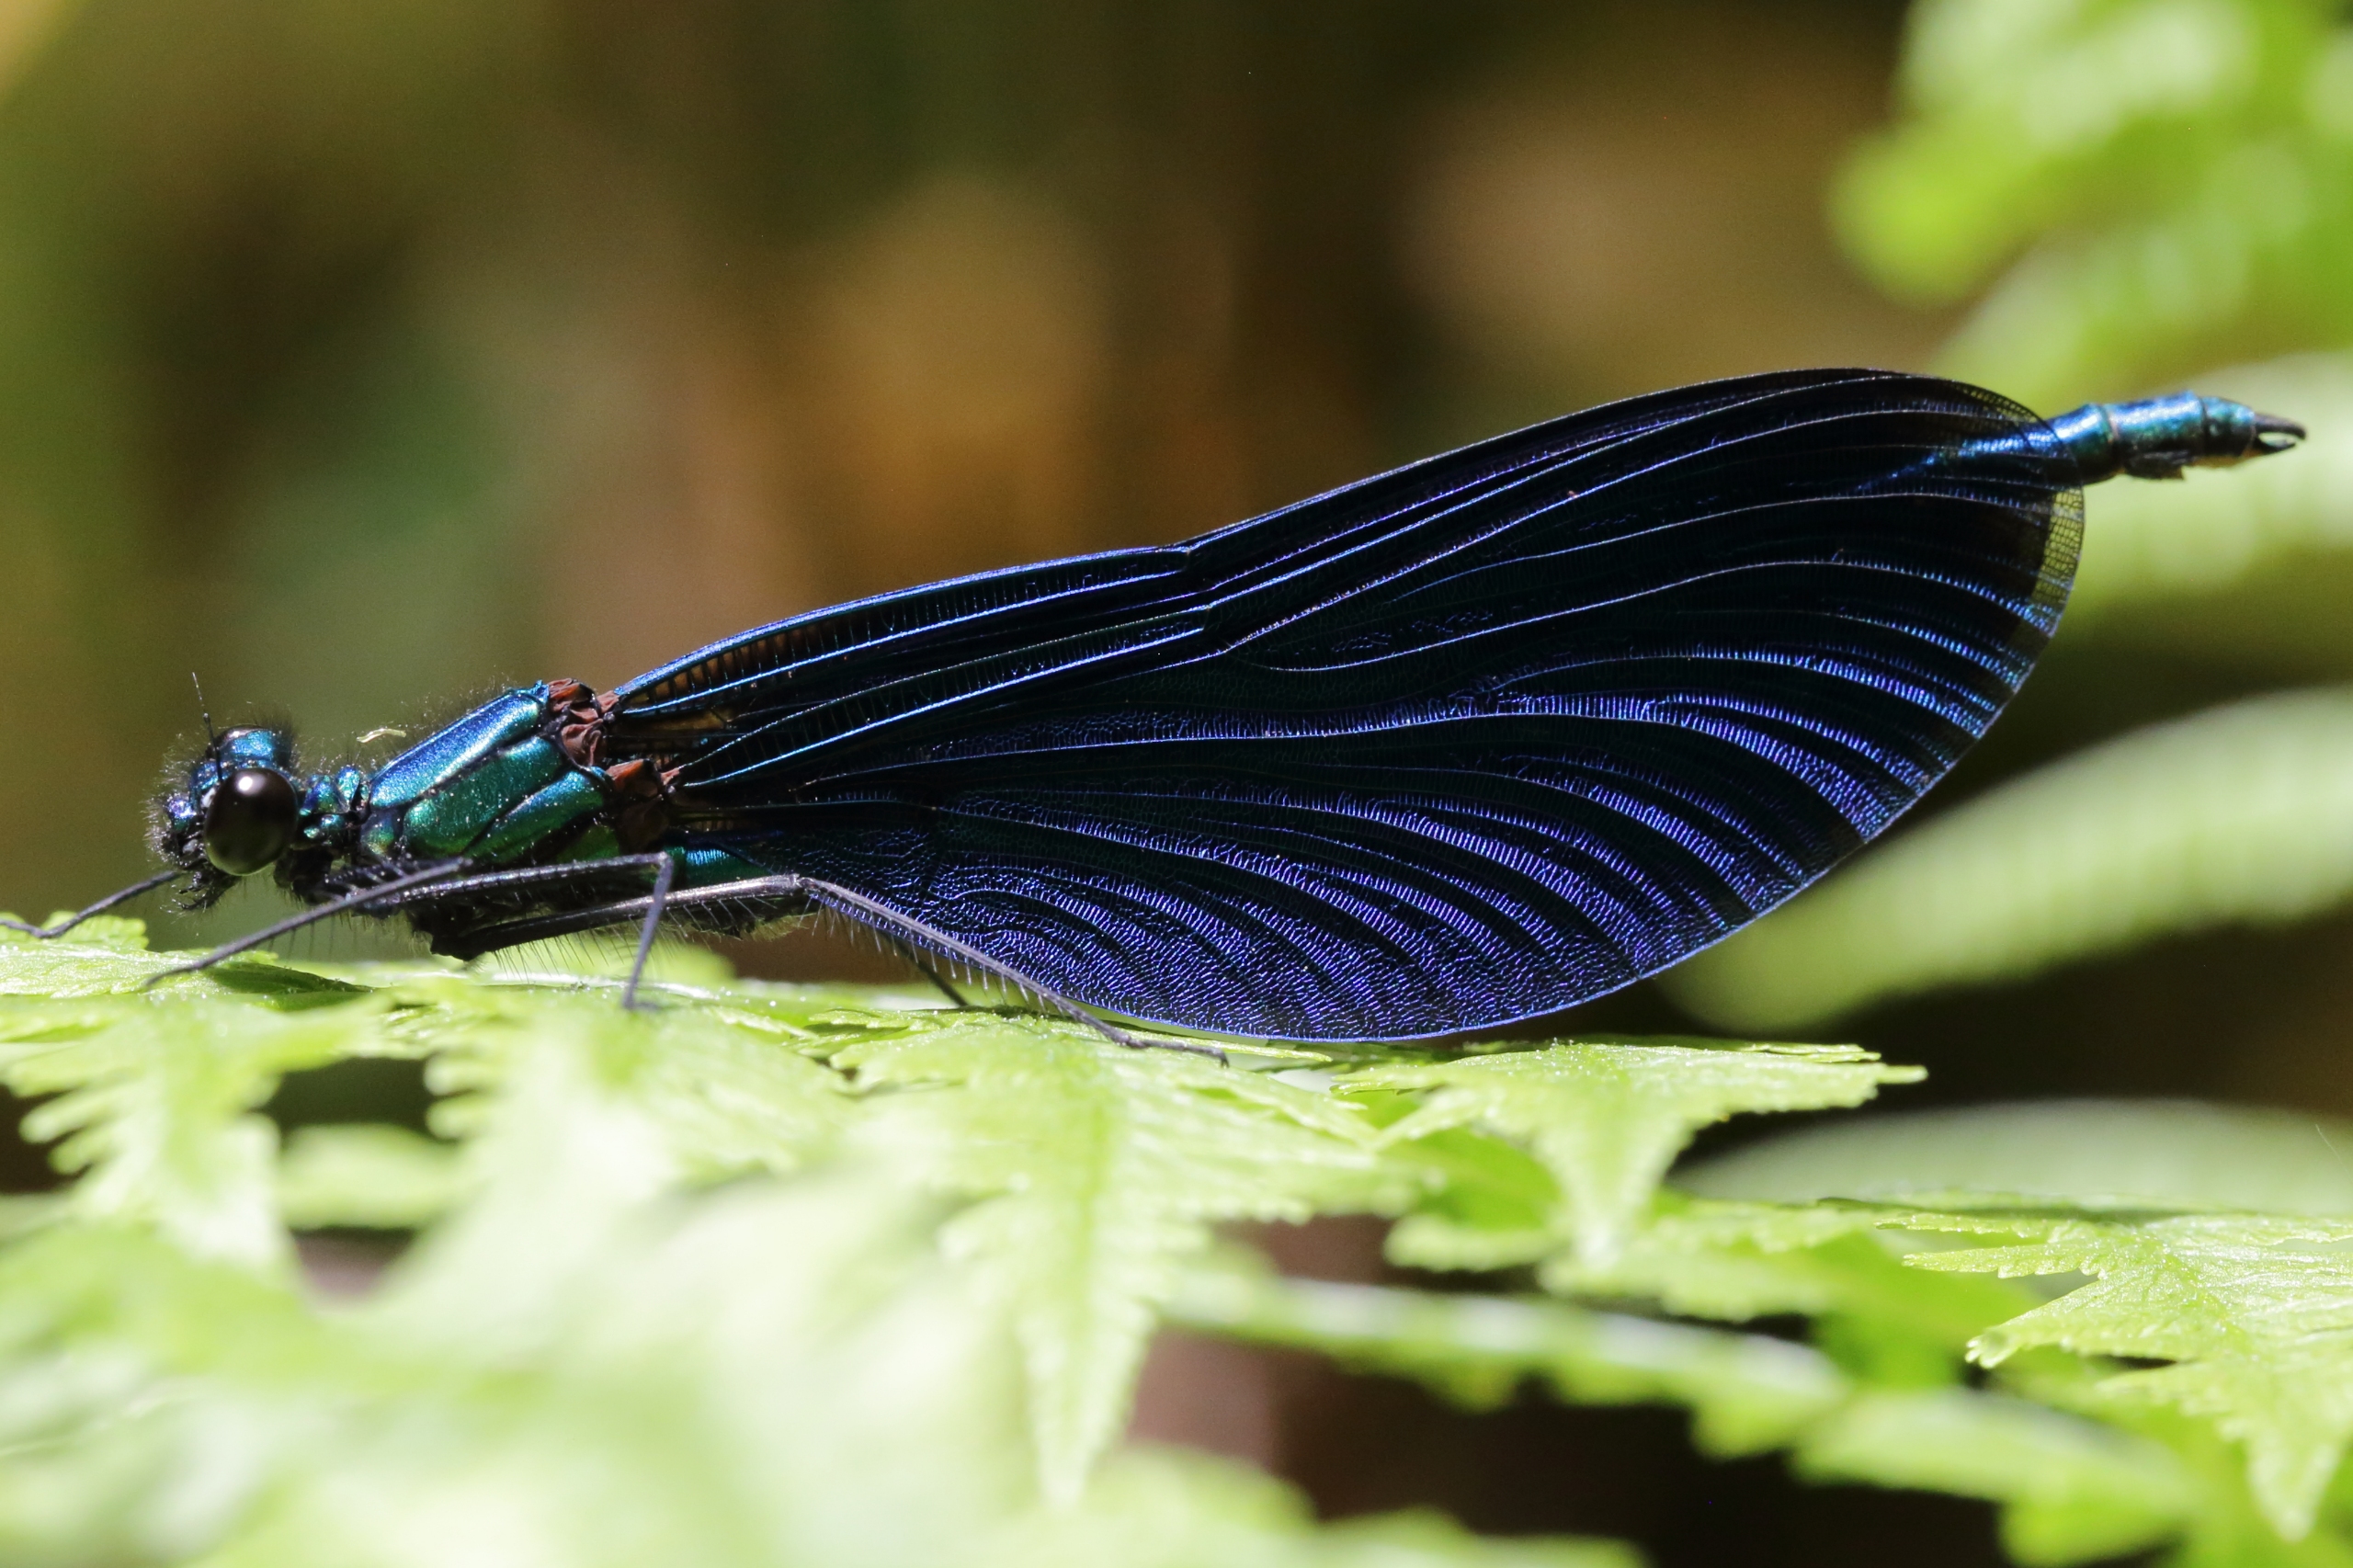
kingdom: Animalia
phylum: Arthropoda
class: Insecta
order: Odonata
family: Calopterygidae
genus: Calopteryx
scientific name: Calopteryx virgo
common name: Blåvinget pragtvandnymfe
